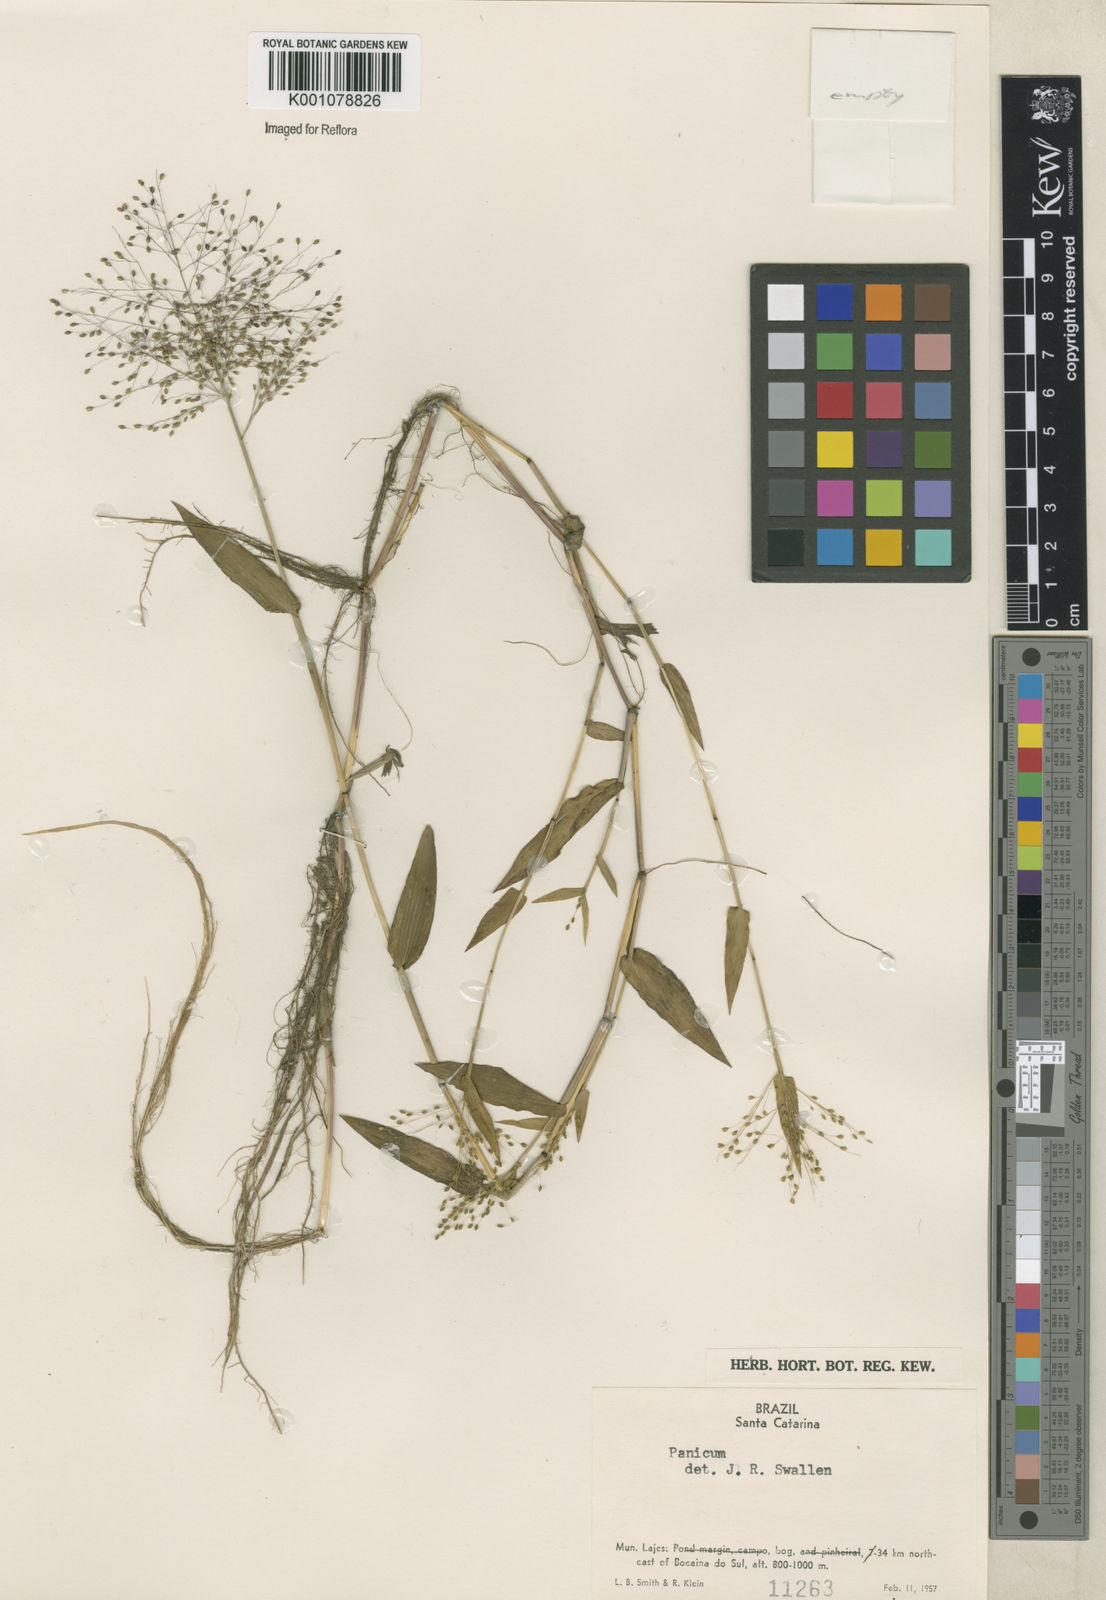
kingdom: Plantae
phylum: Tracheophyta
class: Liliopsida
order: Poales
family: Poaceae
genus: Trichanthecium
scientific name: Trichanthecium schwackeanum
